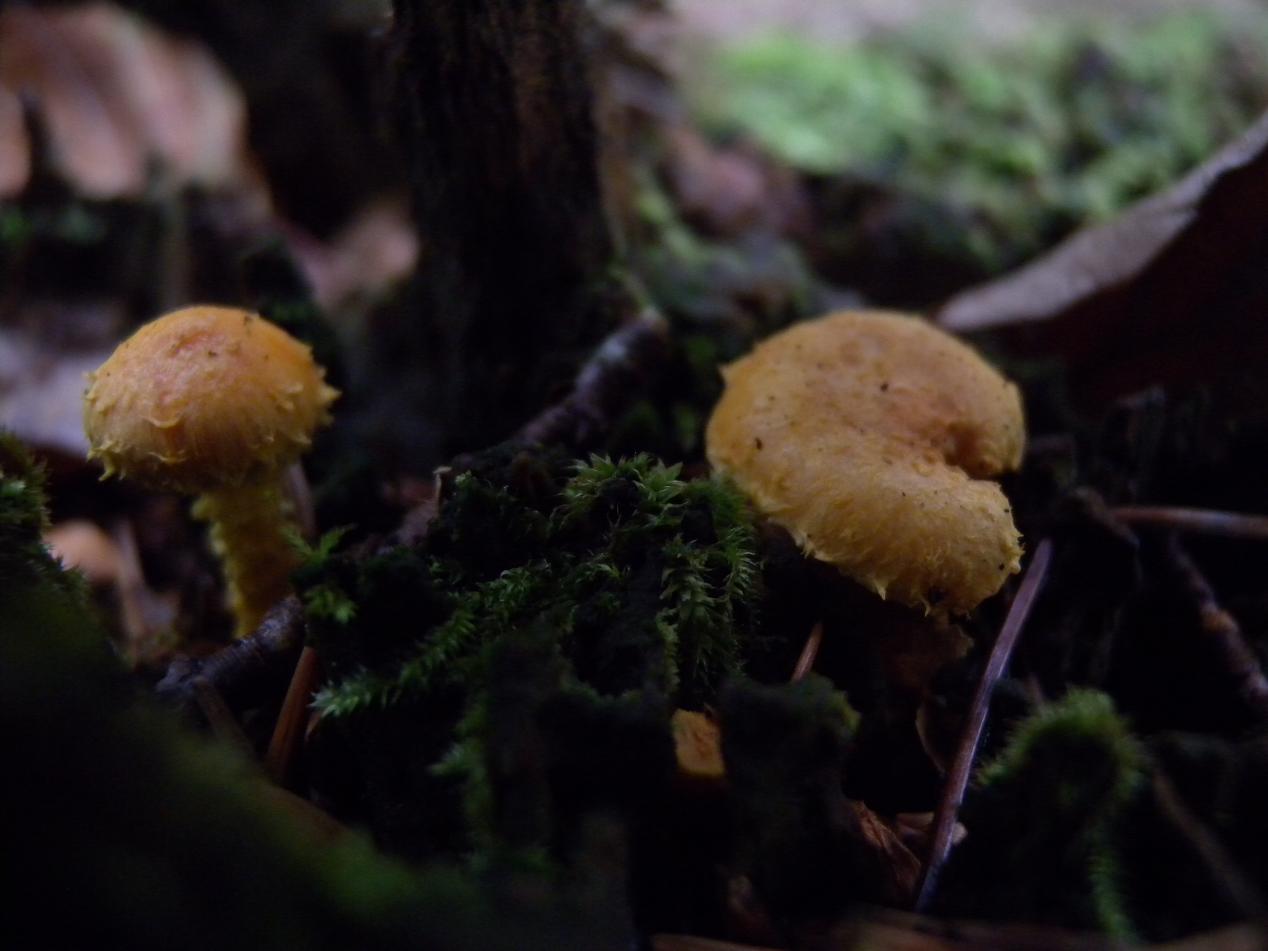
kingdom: Fungi
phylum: Basidiomycota
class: Agaricomycetes
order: Agaricales
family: Strophariaceae
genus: Pholiota
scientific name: Pholiota flammans
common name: flamme-skælhat
